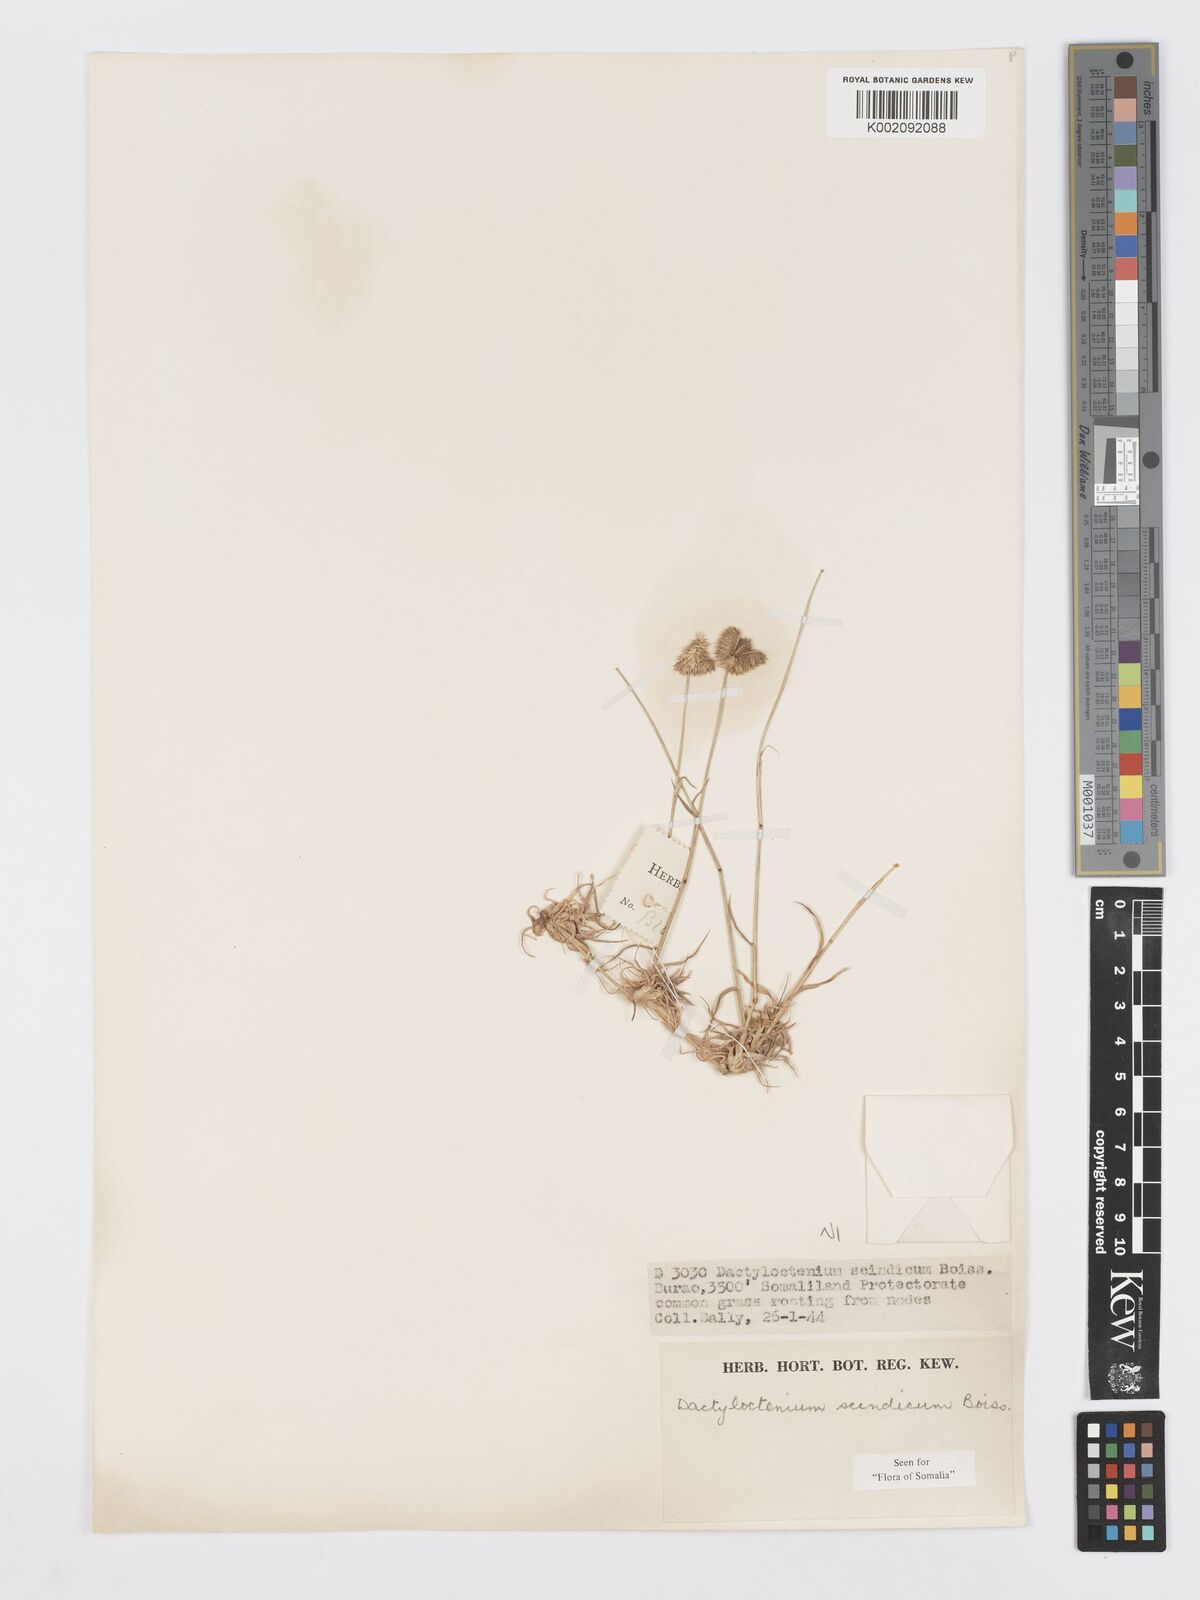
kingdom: Plantae
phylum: Tracheophyta
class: Liliopsida
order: Poales
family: Poaceae
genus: Dactyloctenium
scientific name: Dactyloctenium scindicum
